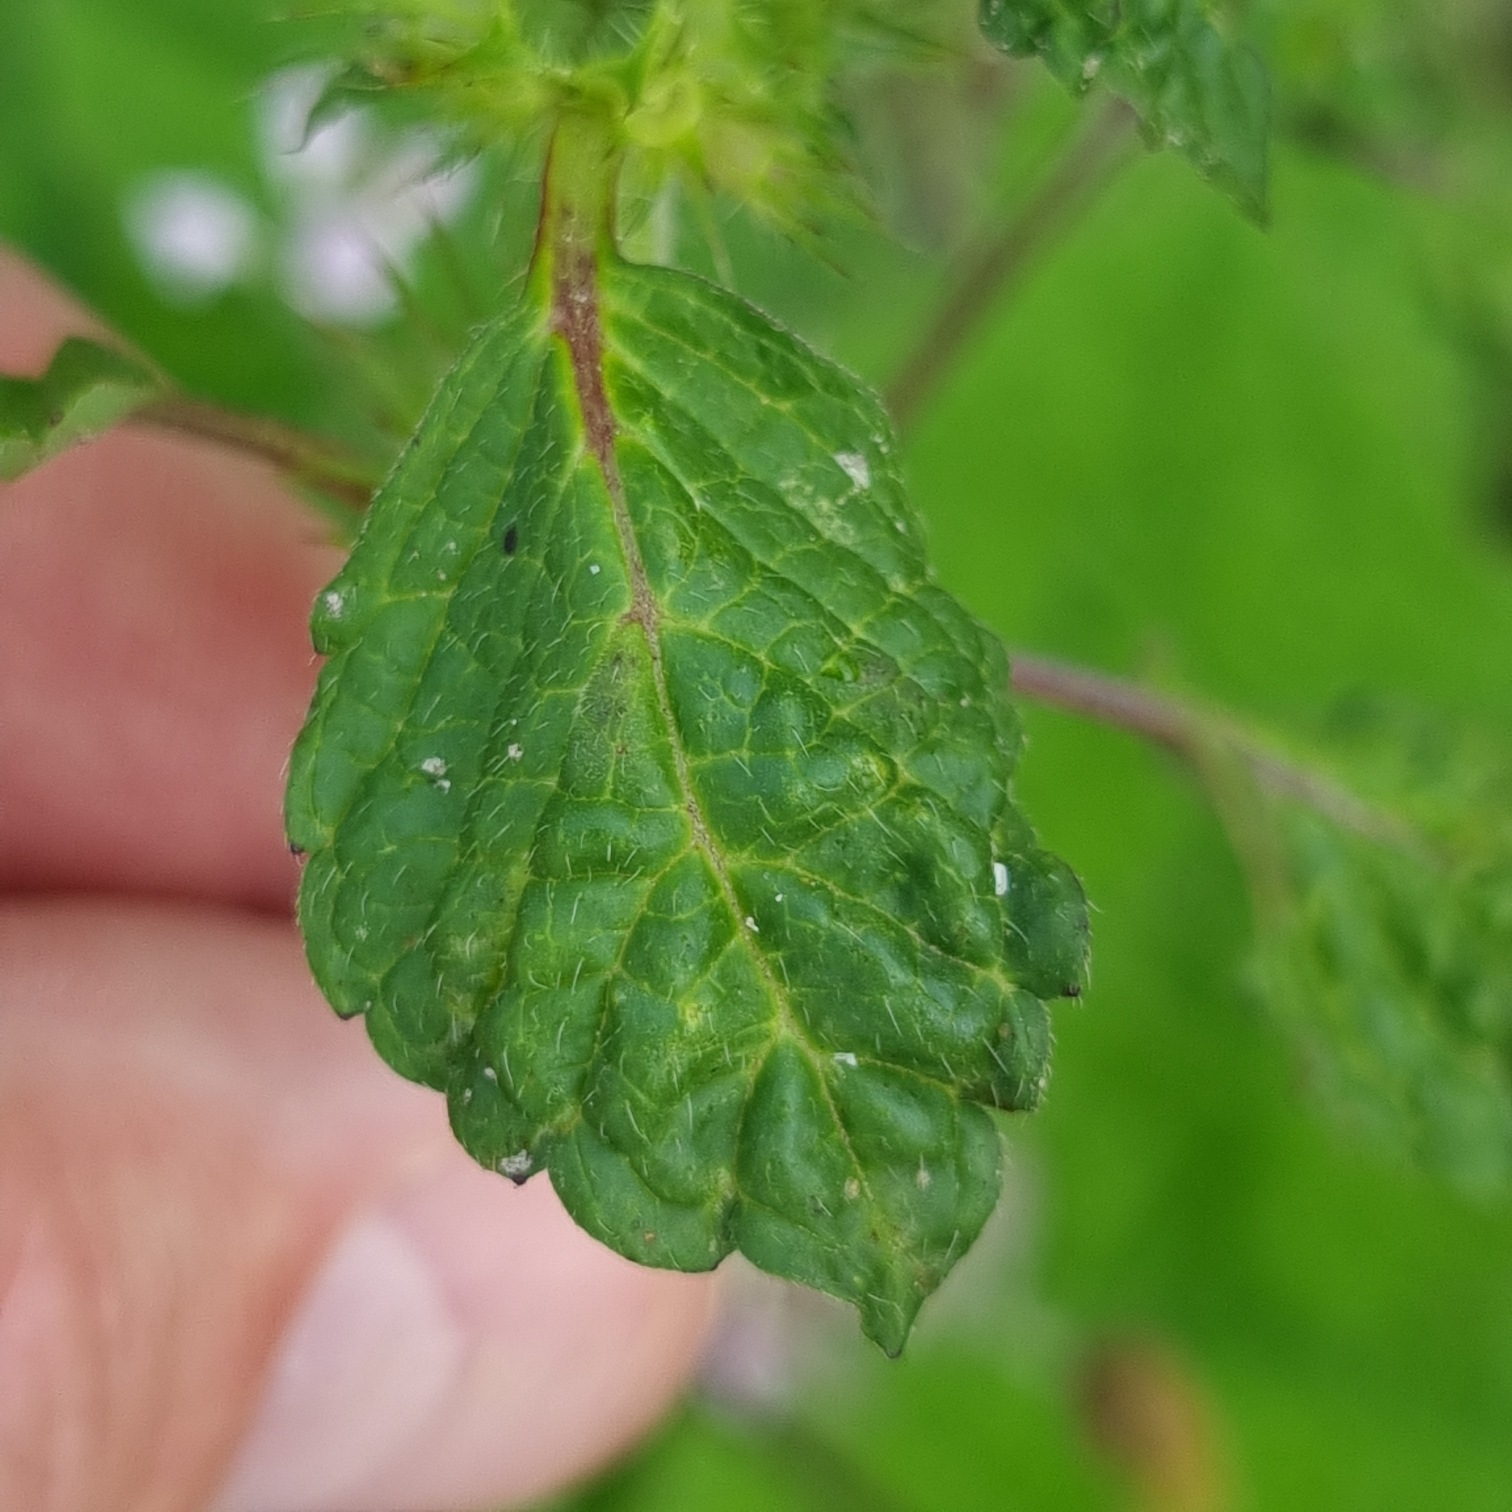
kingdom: Plantae
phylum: Tracheophyta
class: Magnoliopsida
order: Lamiales
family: Lamiaceae
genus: Galeopsis
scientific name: Galeopsis tetrahit
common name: Almindelig hanekro
